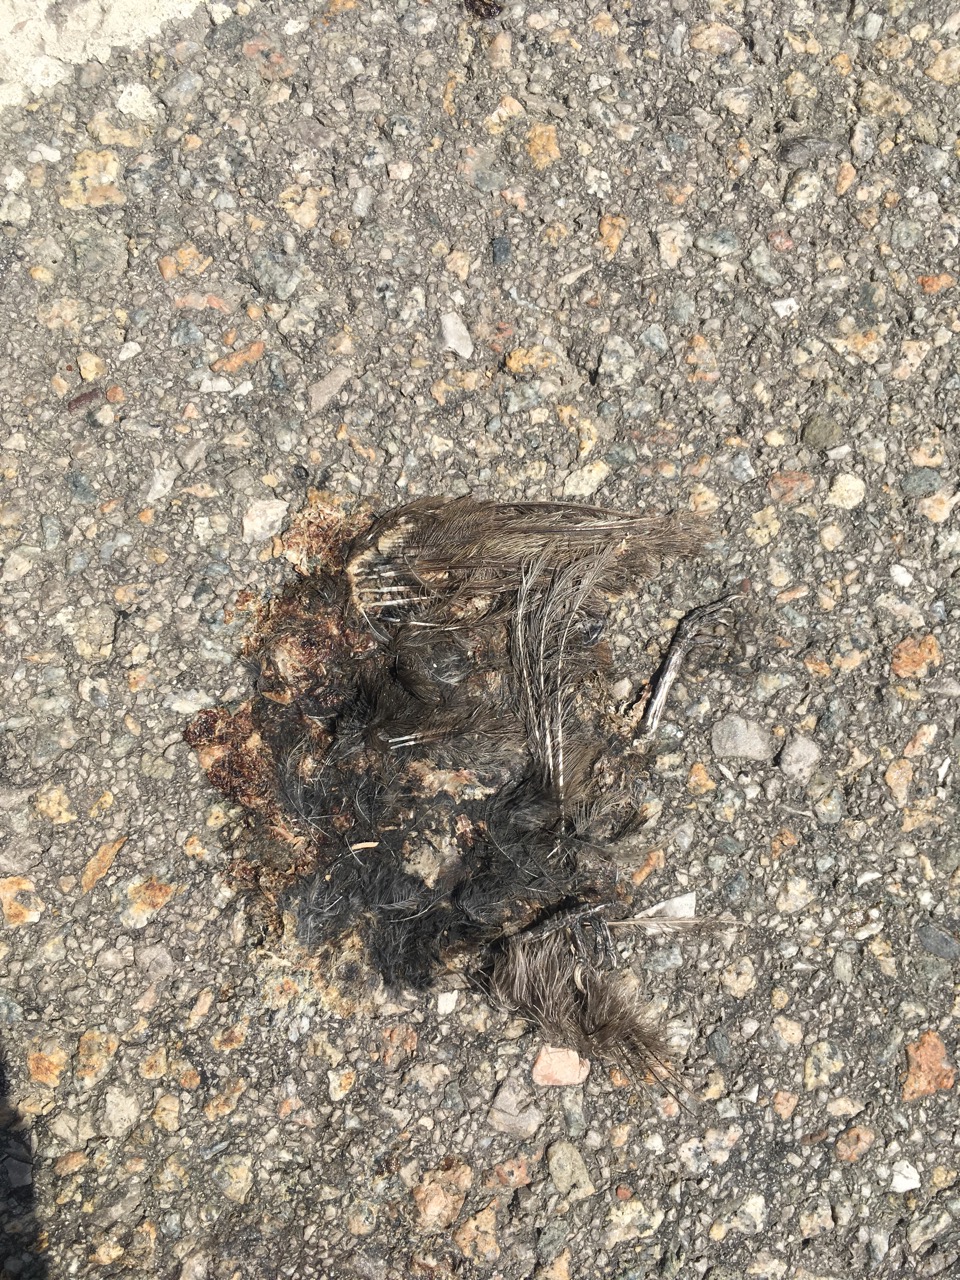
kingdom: Animalia
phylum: Chordata
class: Aves
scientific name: Aves
